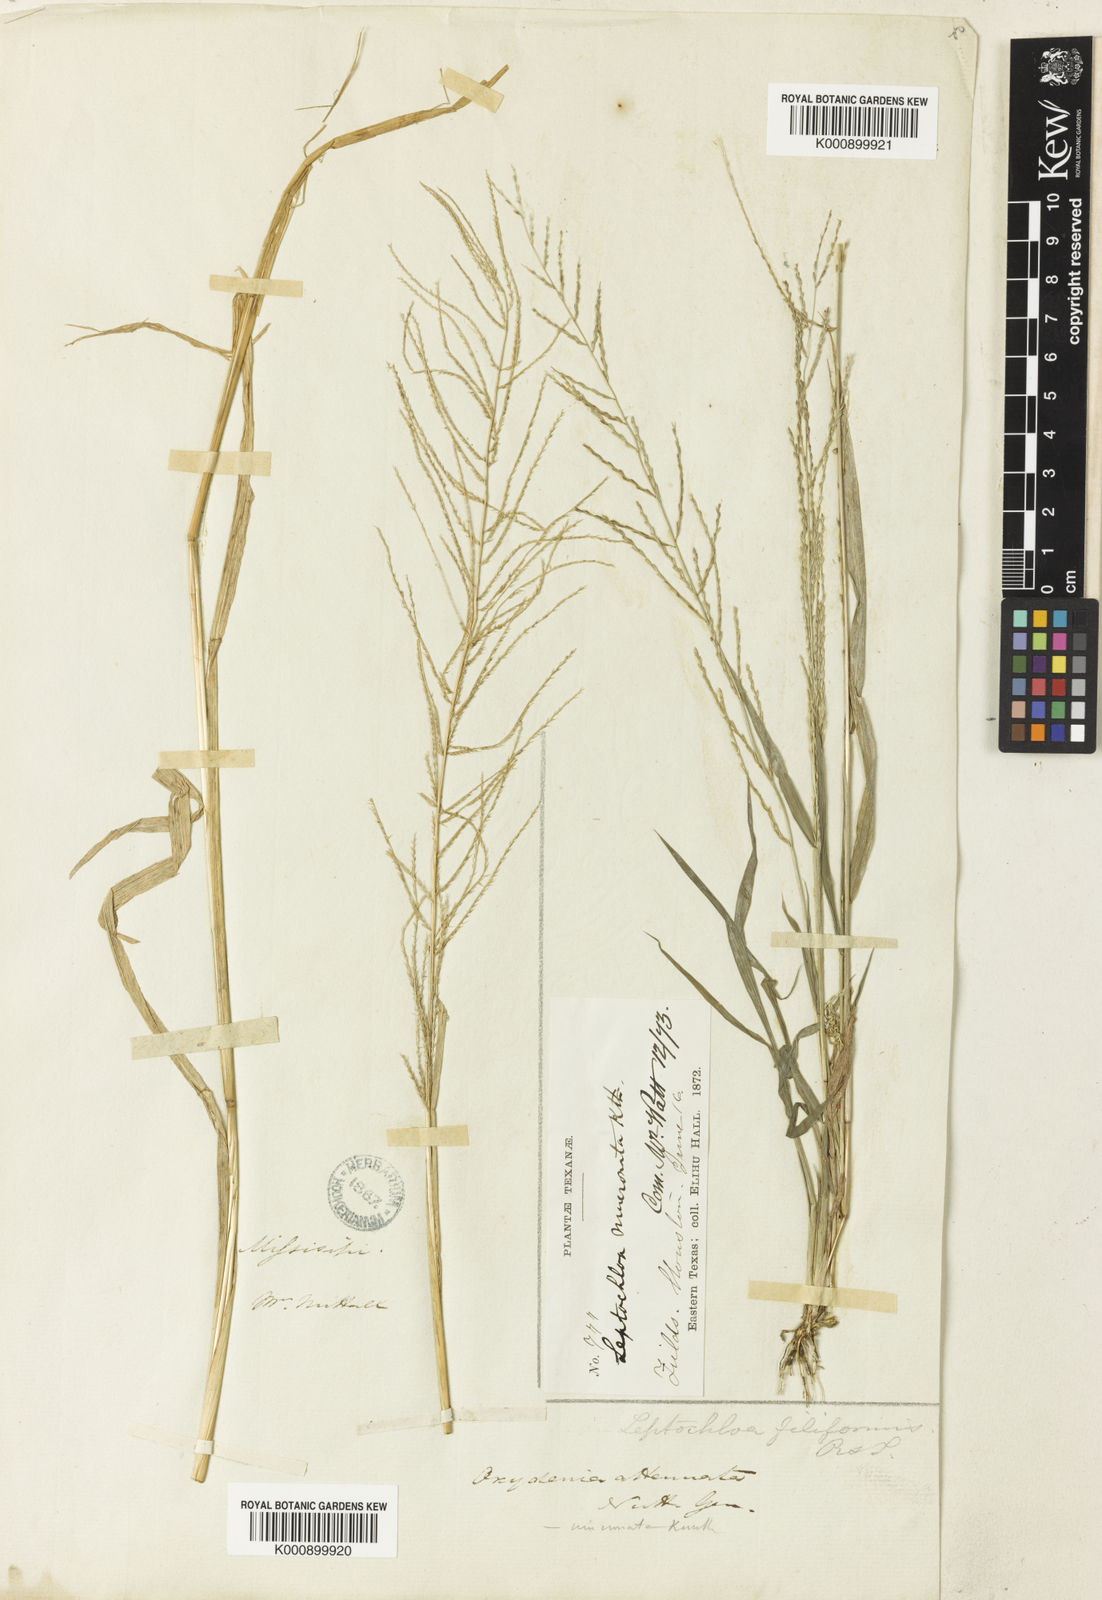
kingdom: Plantae
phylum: Tracheophyta
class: Liliopsida
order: Poales
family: Poaceae
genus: Leptochloa
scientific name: Leptochloa mucronata
